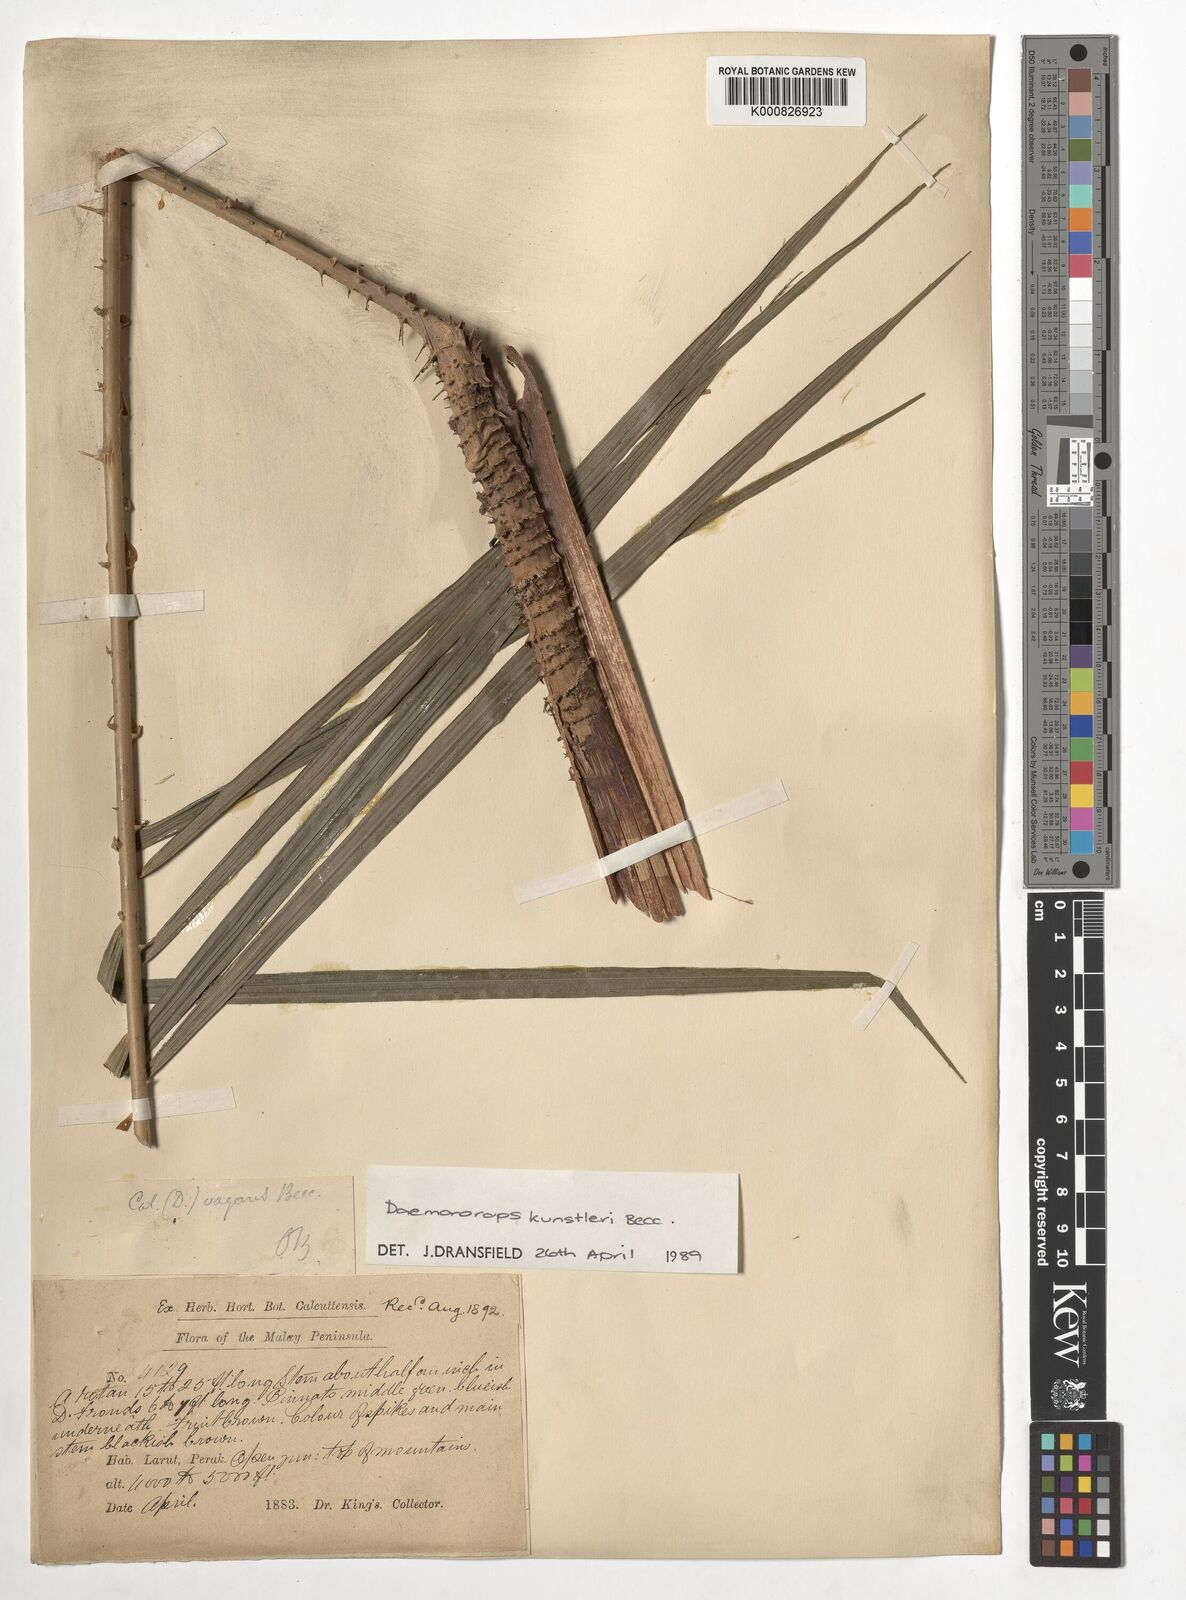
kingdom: Plantae
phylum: Tracheophyta
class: Liliopsida
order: Arecales
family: Arecaceae
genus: Calamus
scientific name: Calamus kunstleri
